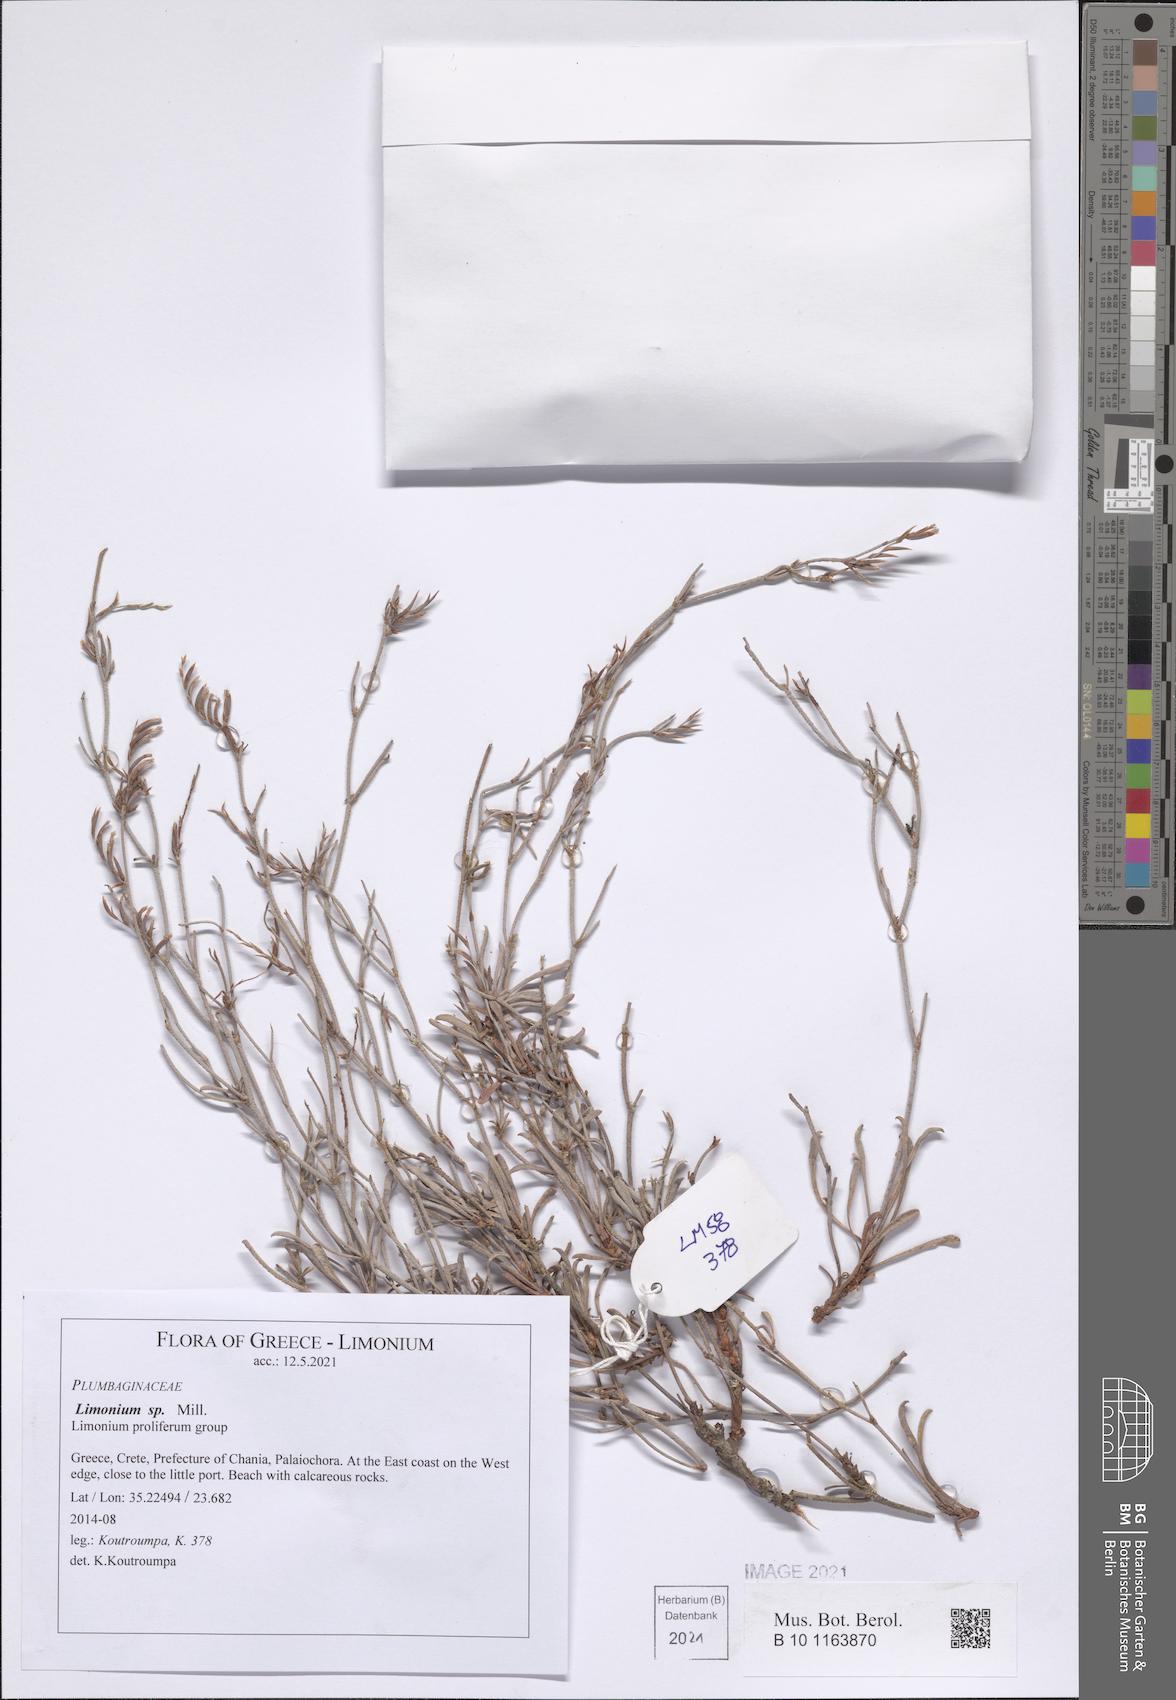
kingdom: Plantae
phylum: Tracheophyta
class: Magnoliopsida
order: Caryophyllales
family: Plumbaginaceae
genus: Limonium
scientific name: Limonium
